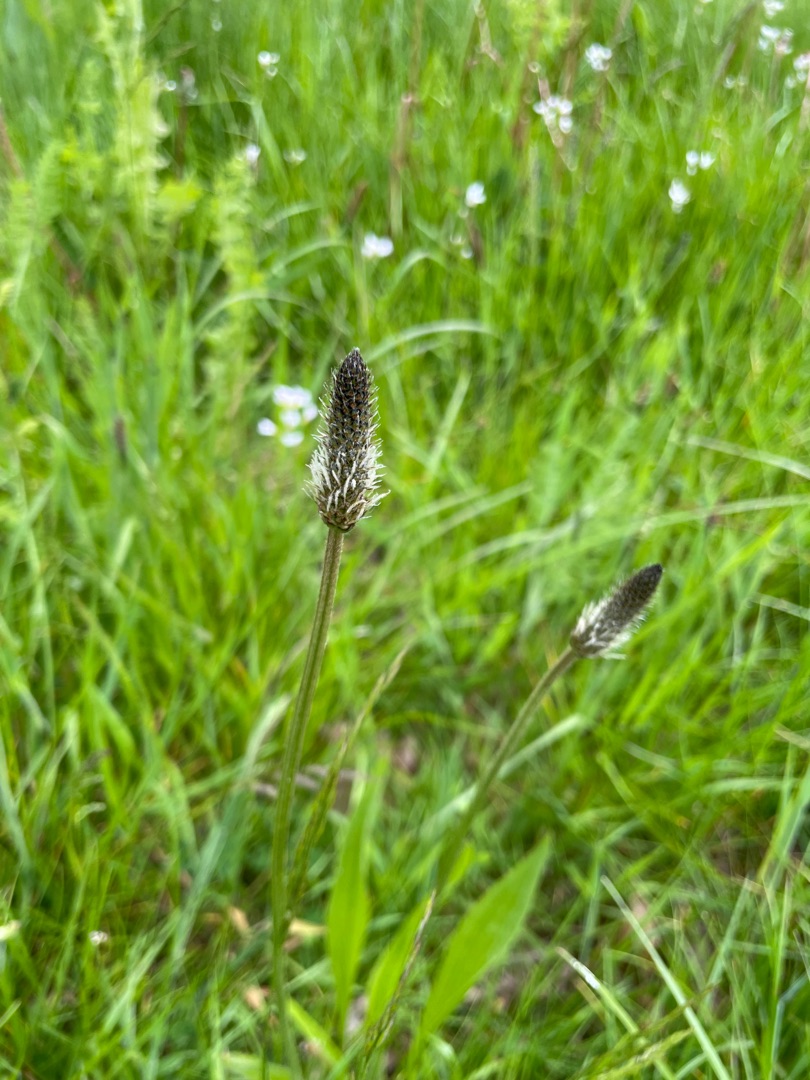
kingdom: Plantae
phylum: Tracheophyta
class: Magnoliopsida
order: Lamiales
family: Plantaginaceae
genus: Plantago
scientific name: Plantago lanceolata
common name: Lancet-vejbred
